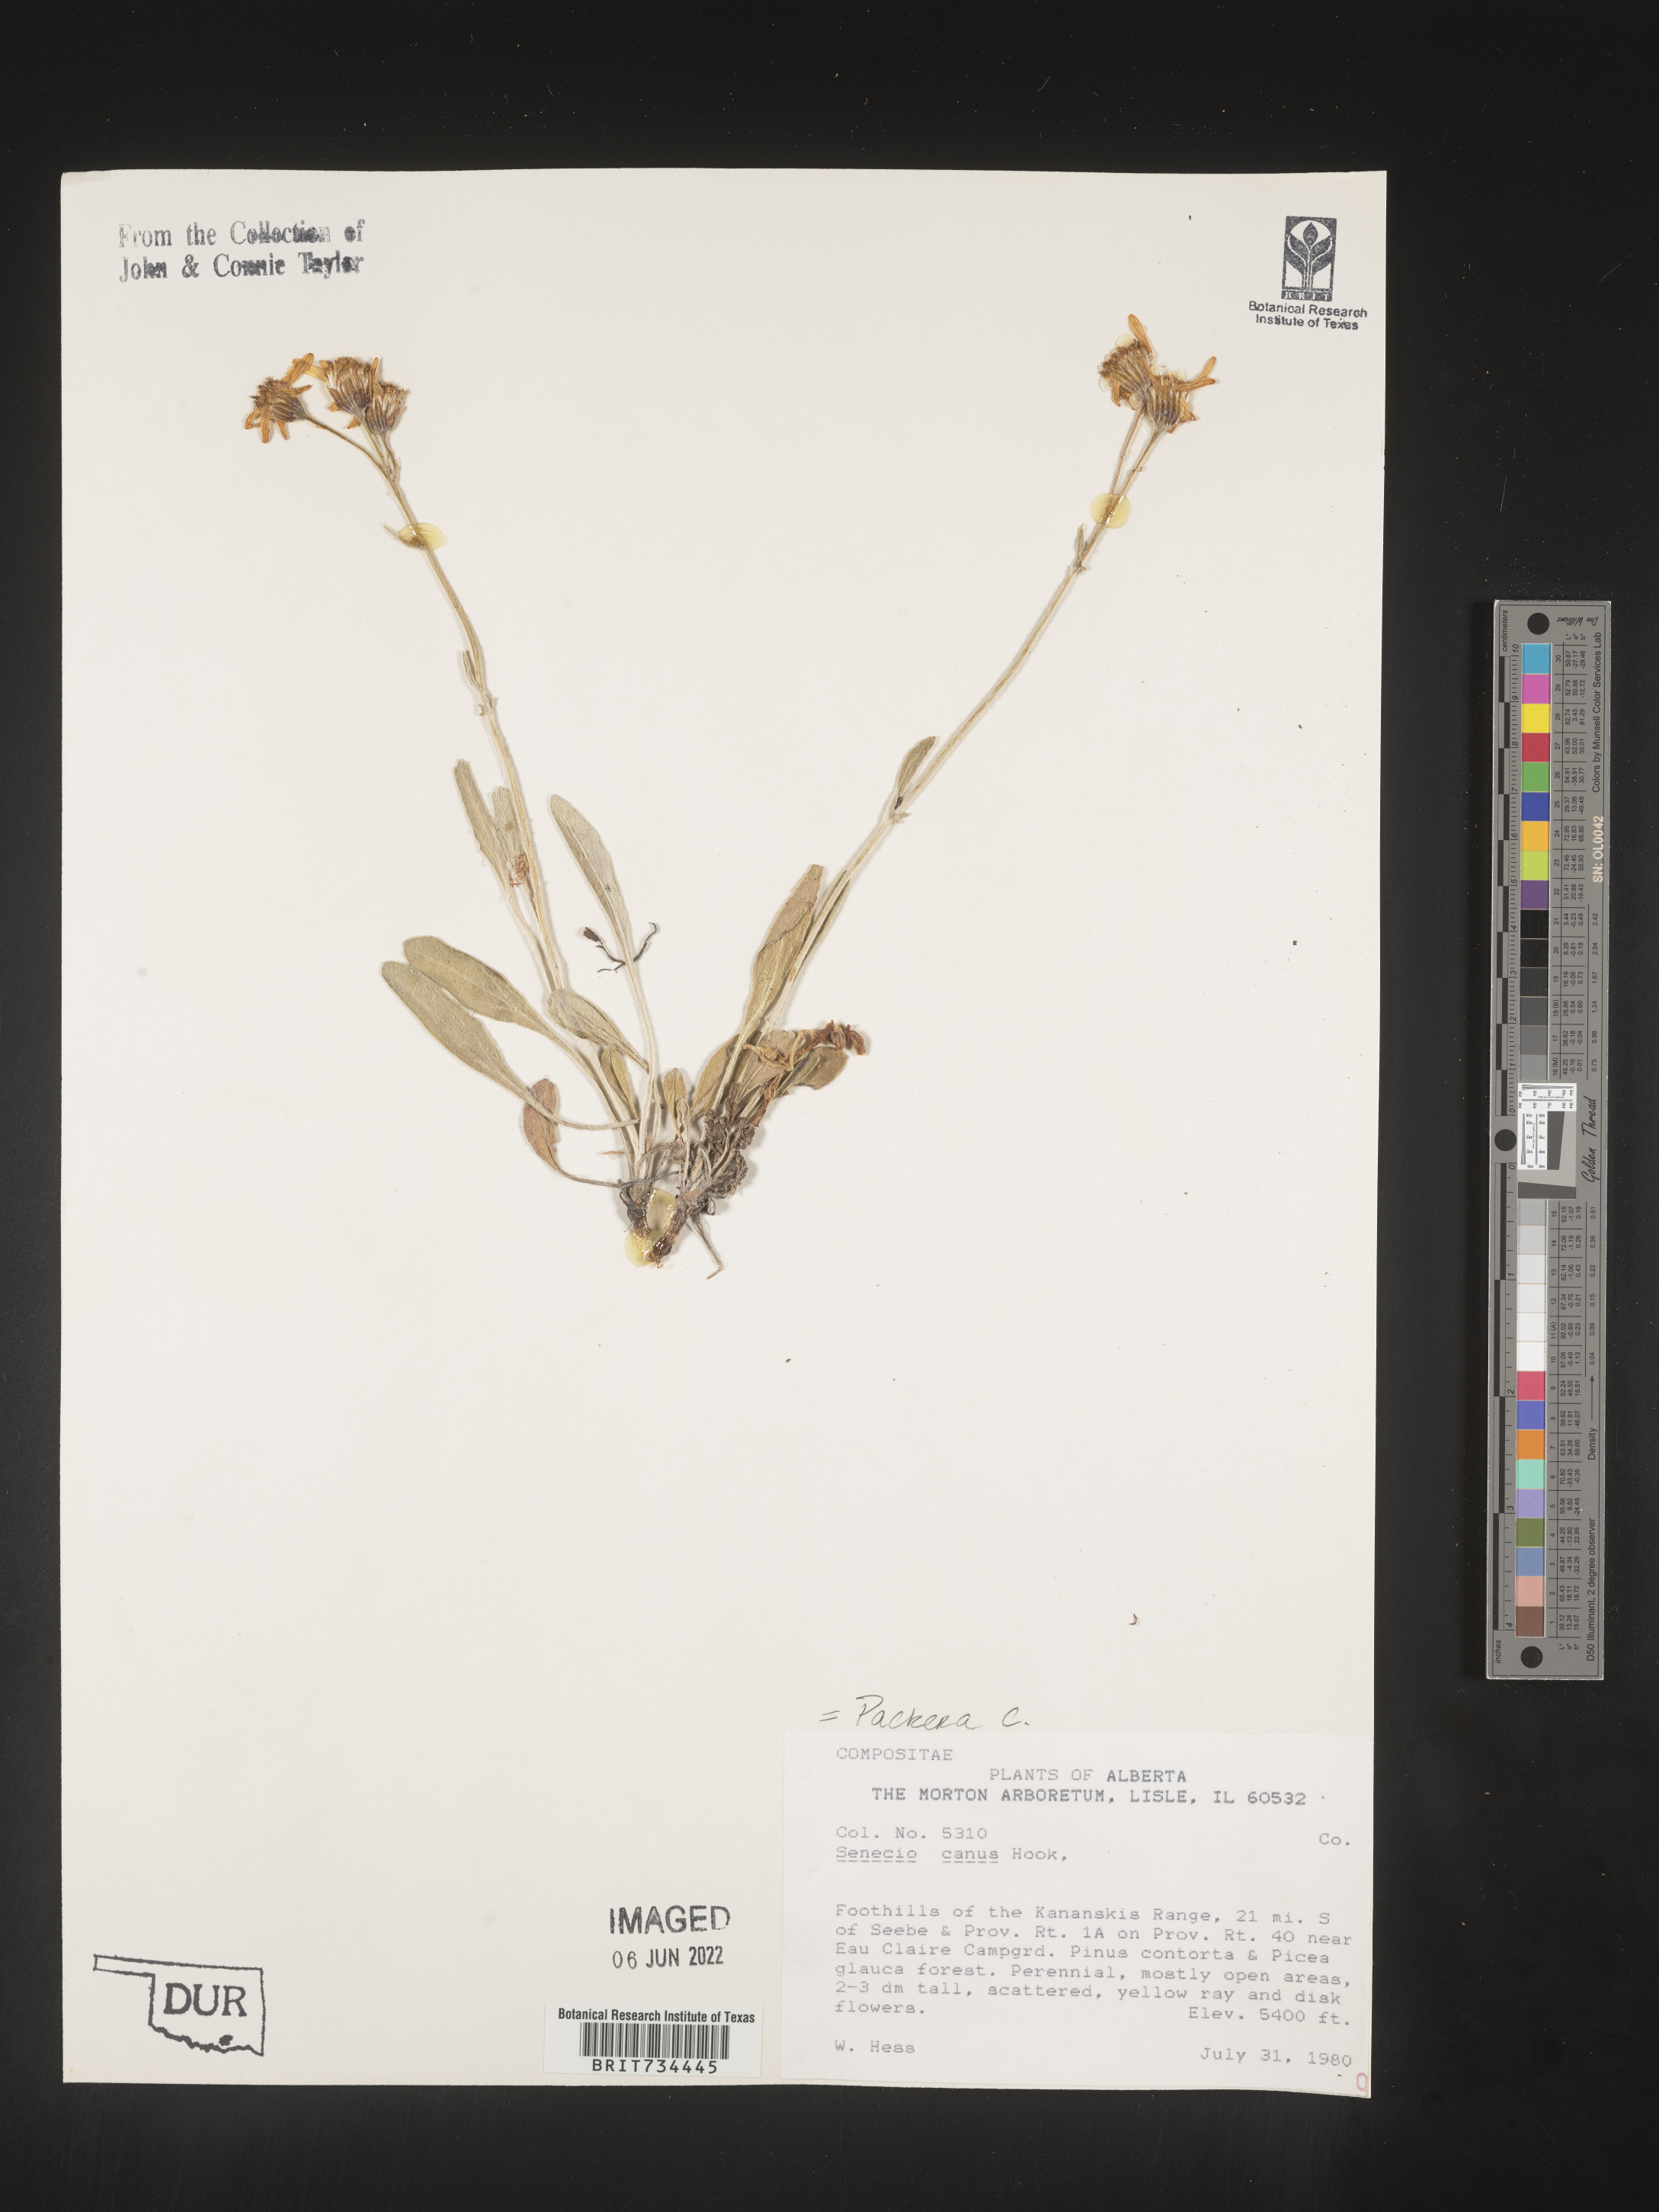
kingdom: Plantae
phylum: Tracheophyta
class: Magnoliopsida
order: Asterales
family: Asteraceae
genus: Packera
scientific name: Packera cana
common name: Woolly groundsel
